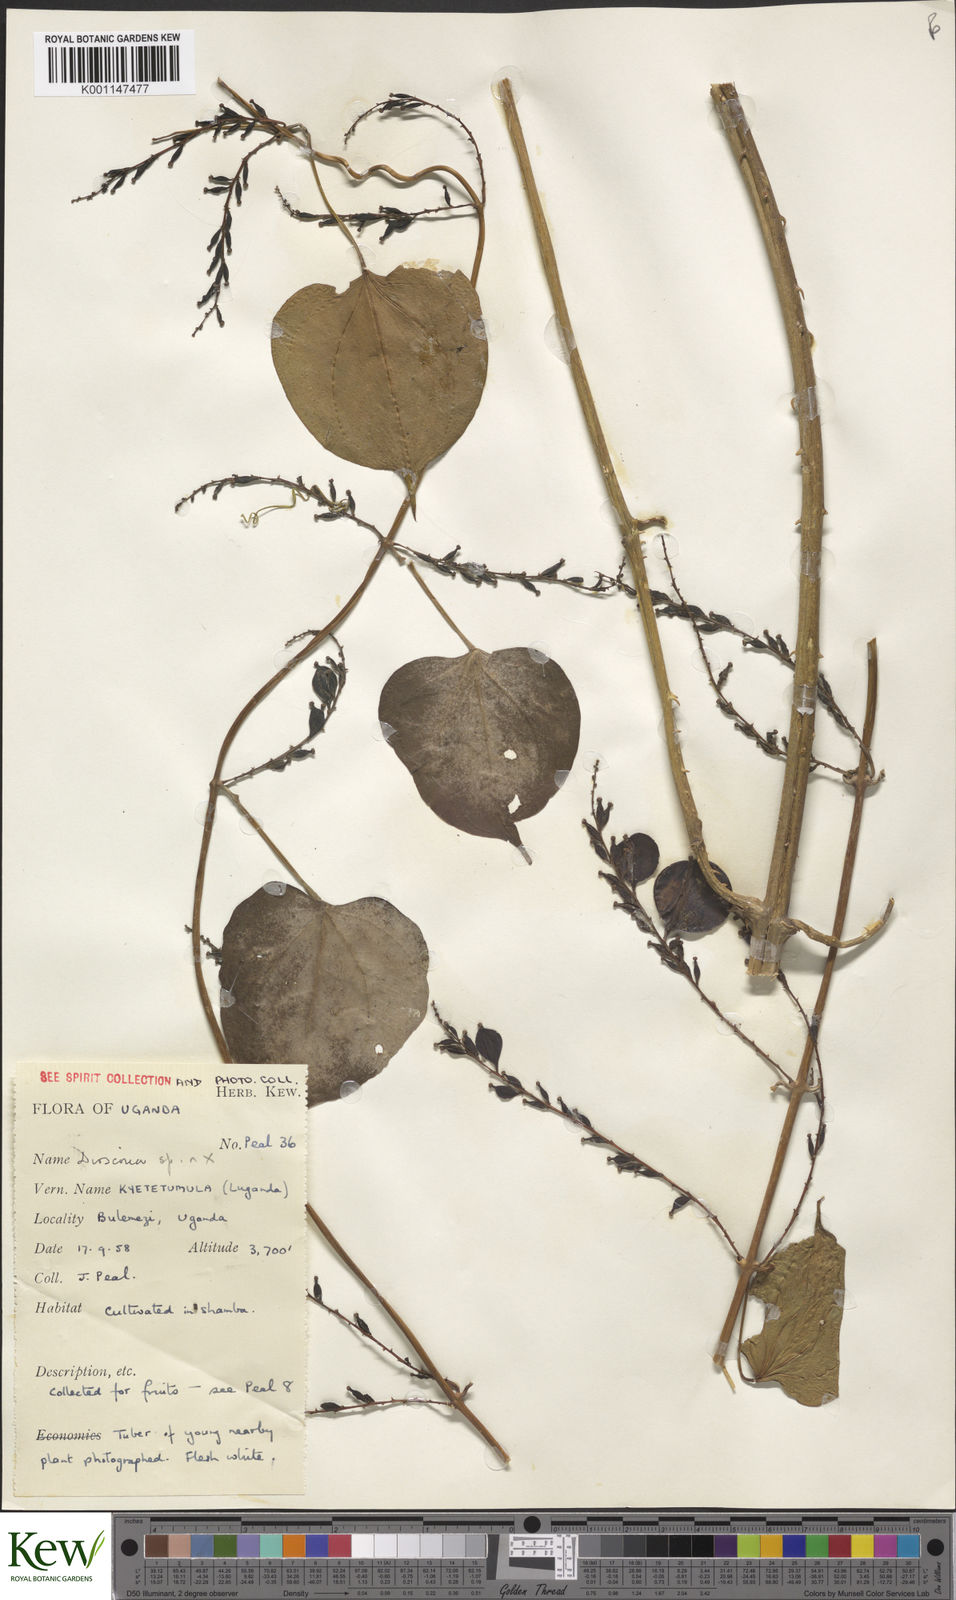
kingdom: Plantae
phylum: Tracheophyta
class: Liliopsida
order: Dioscoreales
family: Dioscoreaceae
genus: Dioscorea
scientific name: Dioscorea
